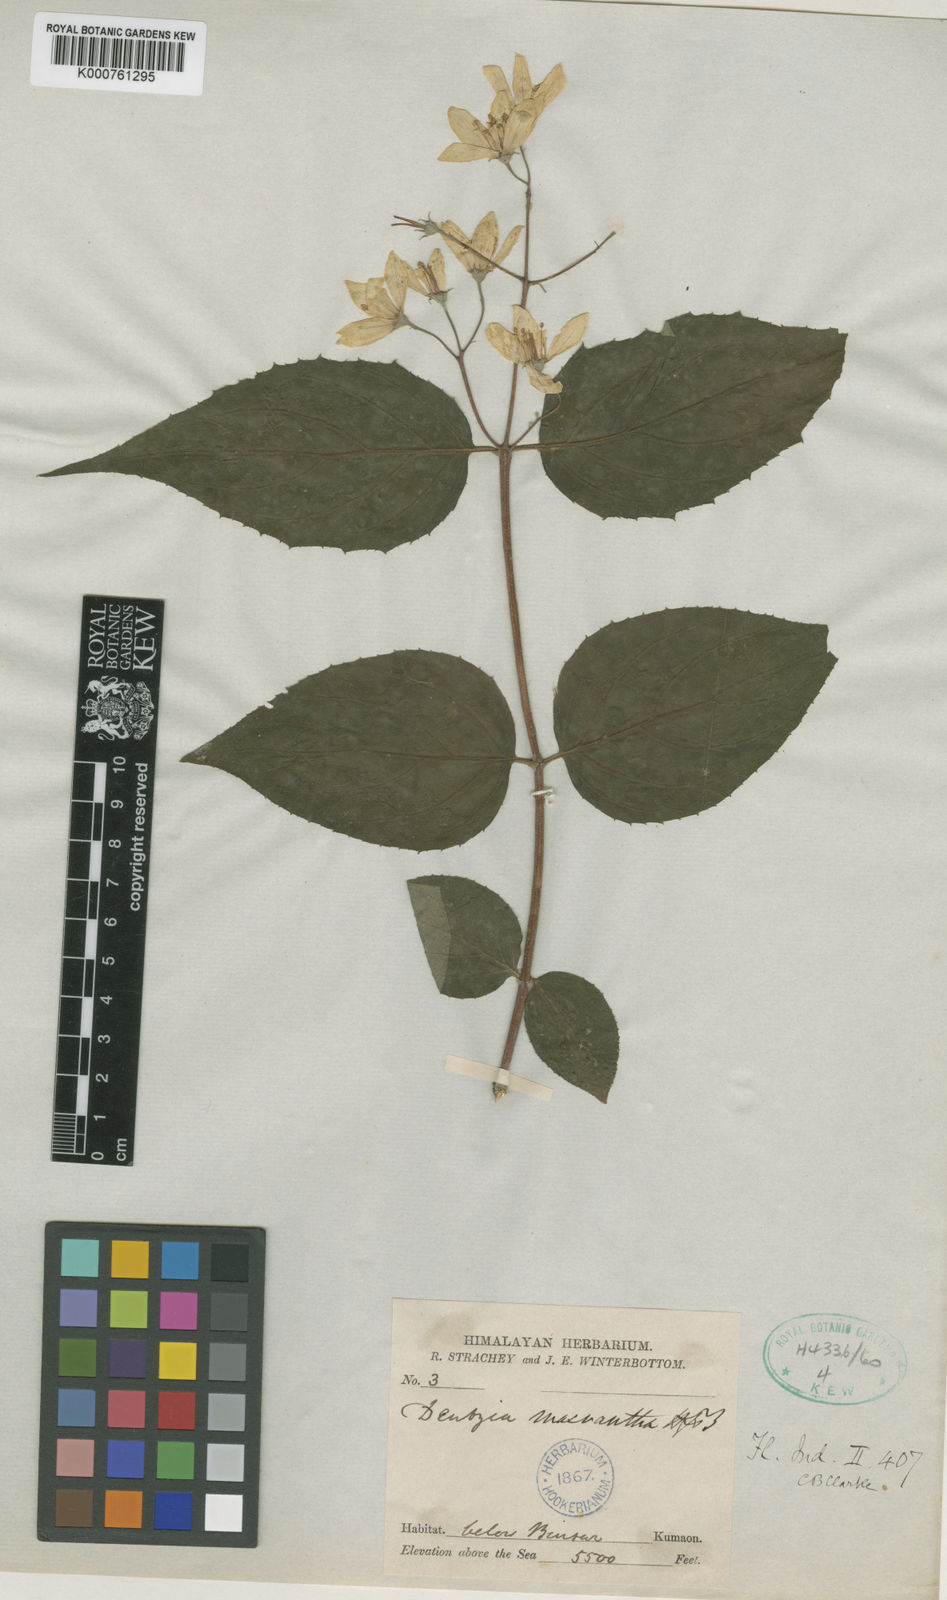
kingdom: Plantae
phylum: Tracheophyta
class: Magnoliopsida
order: Cornales
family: Hydrangeaceae
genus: Deutzia
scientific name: Deutzia staminea
